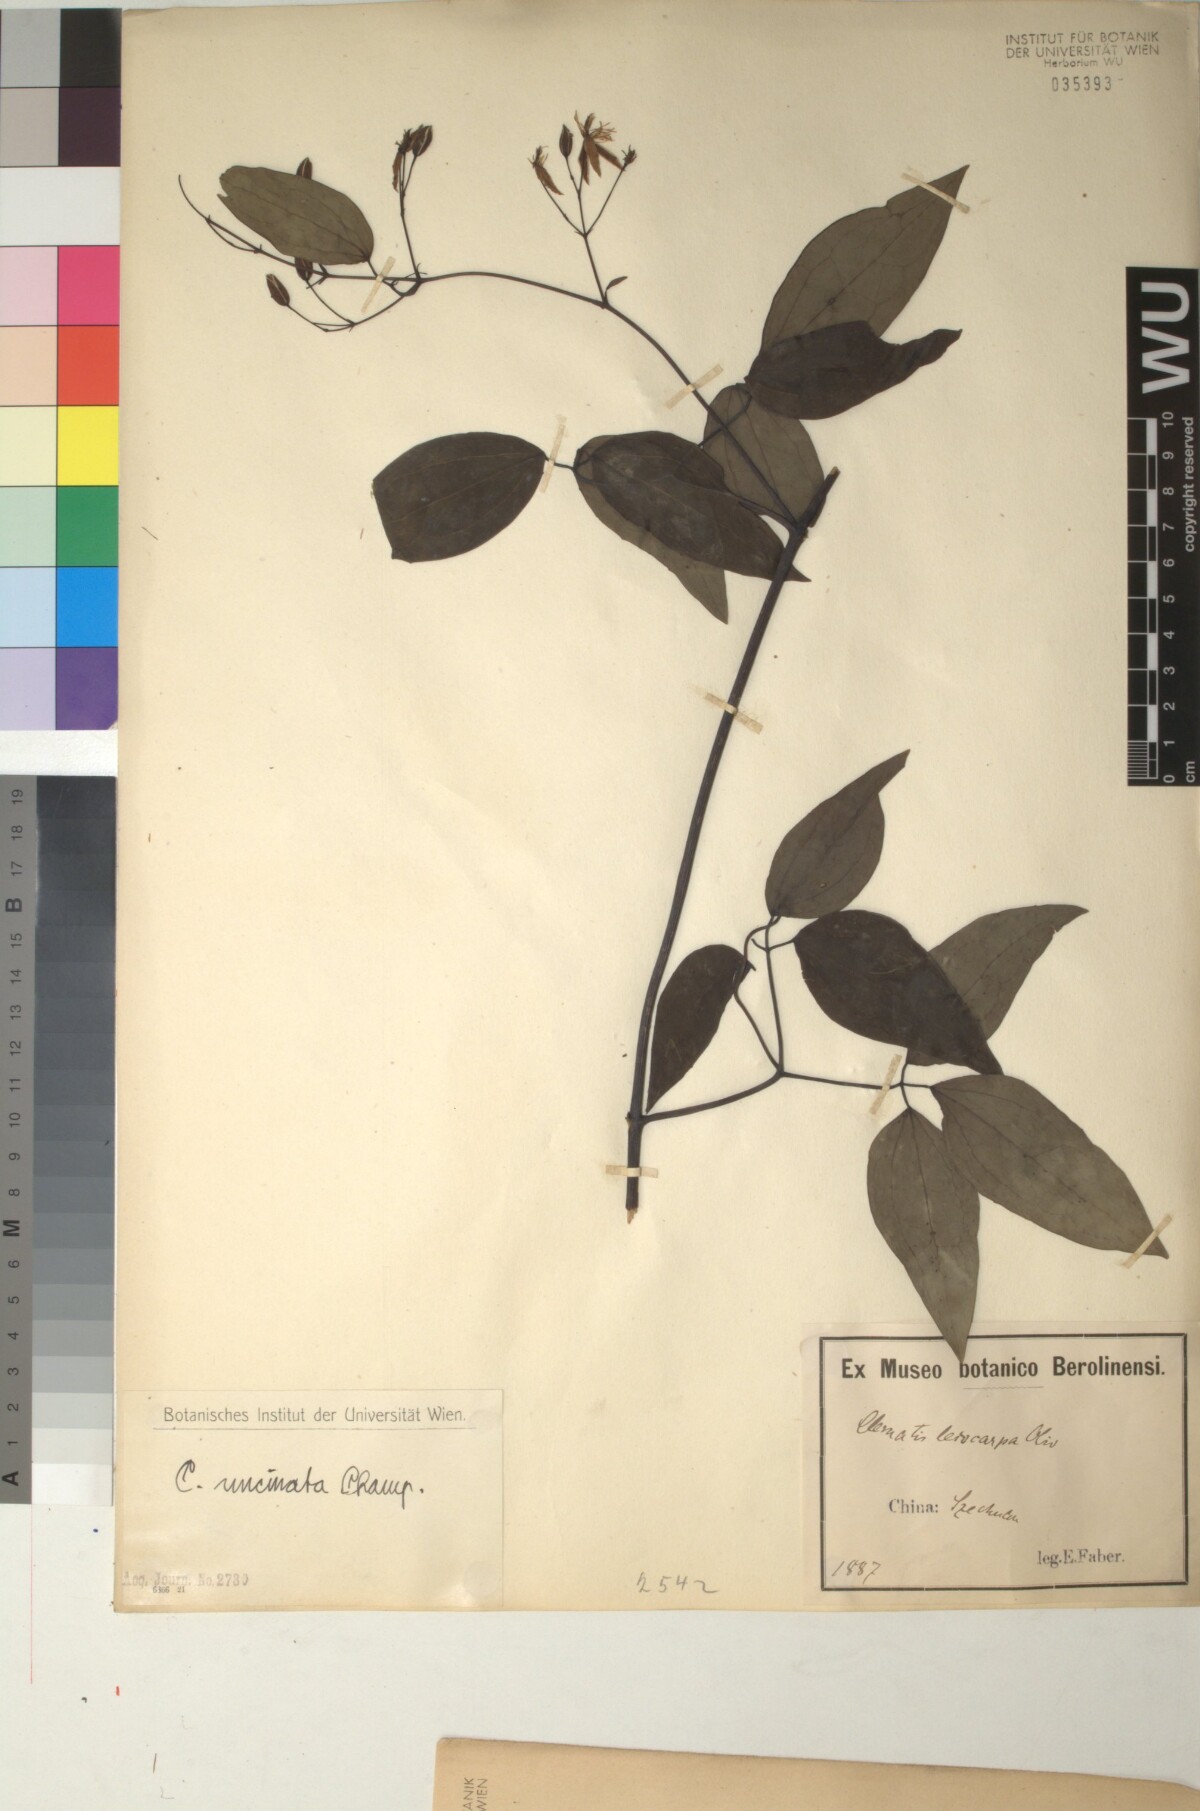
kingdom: Plantae
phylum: Tracheophyta
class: Magnoliopsida
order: Ranunculales
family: Ranunculaceae
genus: Clematis
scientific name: Clematis uncinata
